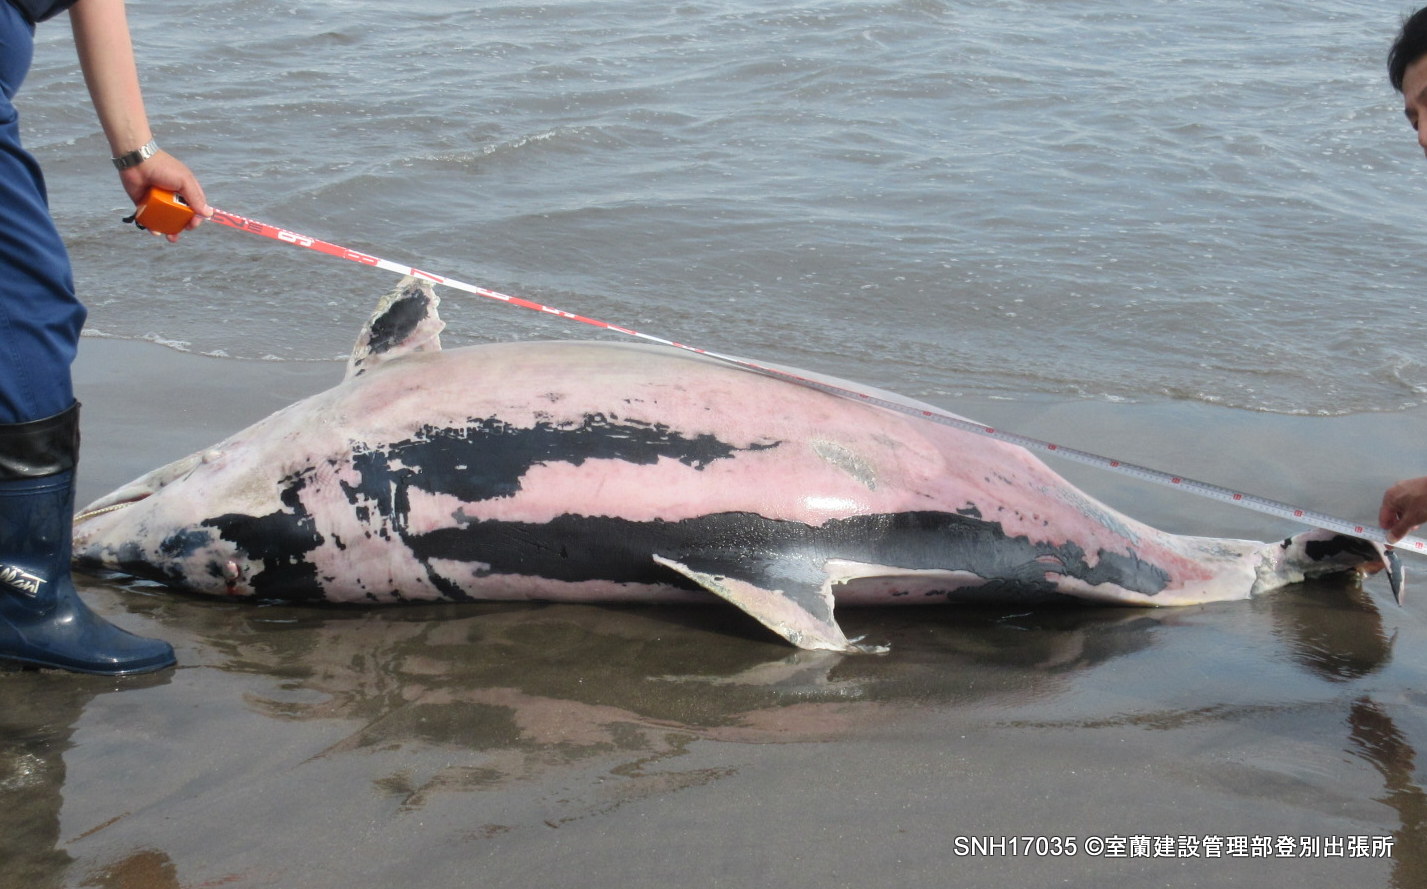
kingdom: Animalia
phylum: Chordata
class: Mammalia
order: Cetacea
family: Delphinidae
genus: Lagenorhynchus
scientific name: Lagenorhynchus obliquidens
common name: Pacific white-sided dolphin
